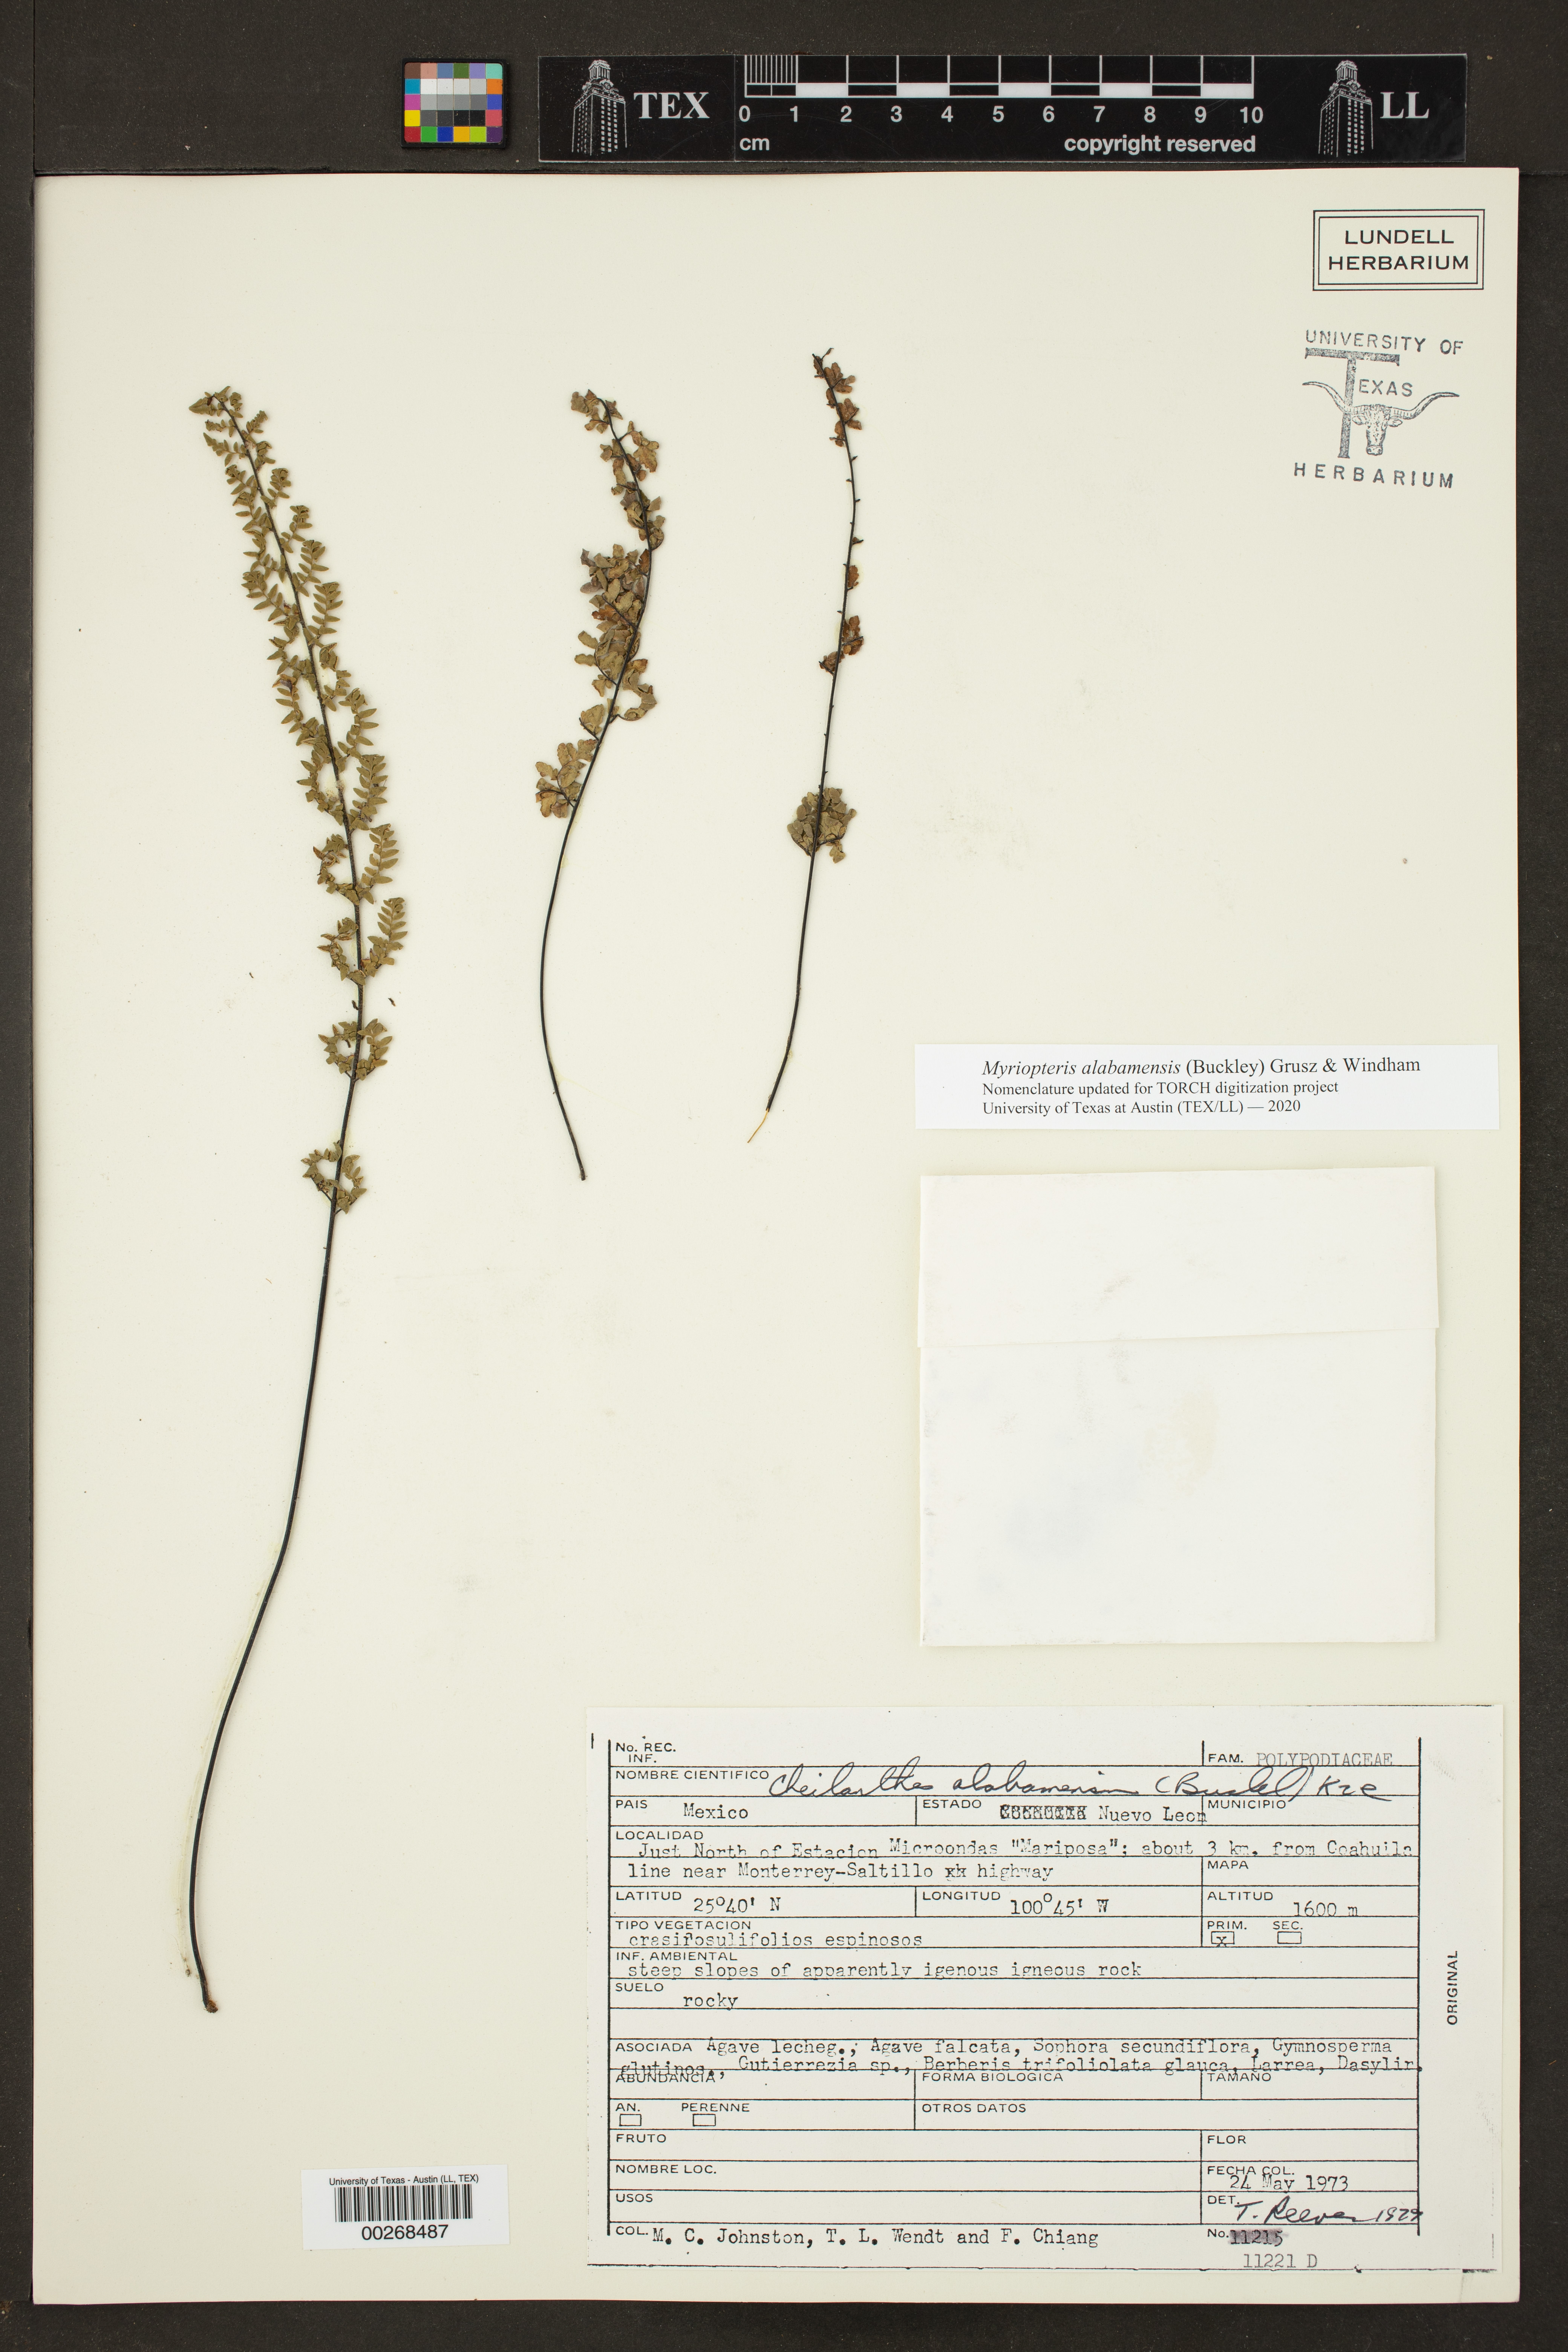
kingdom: Plantae
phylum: Tracheophyta
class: Polypodiopsida
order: Polypodiales
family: Pteridaceae
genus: Myriopteris
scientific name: Myriopteris alabamensis
